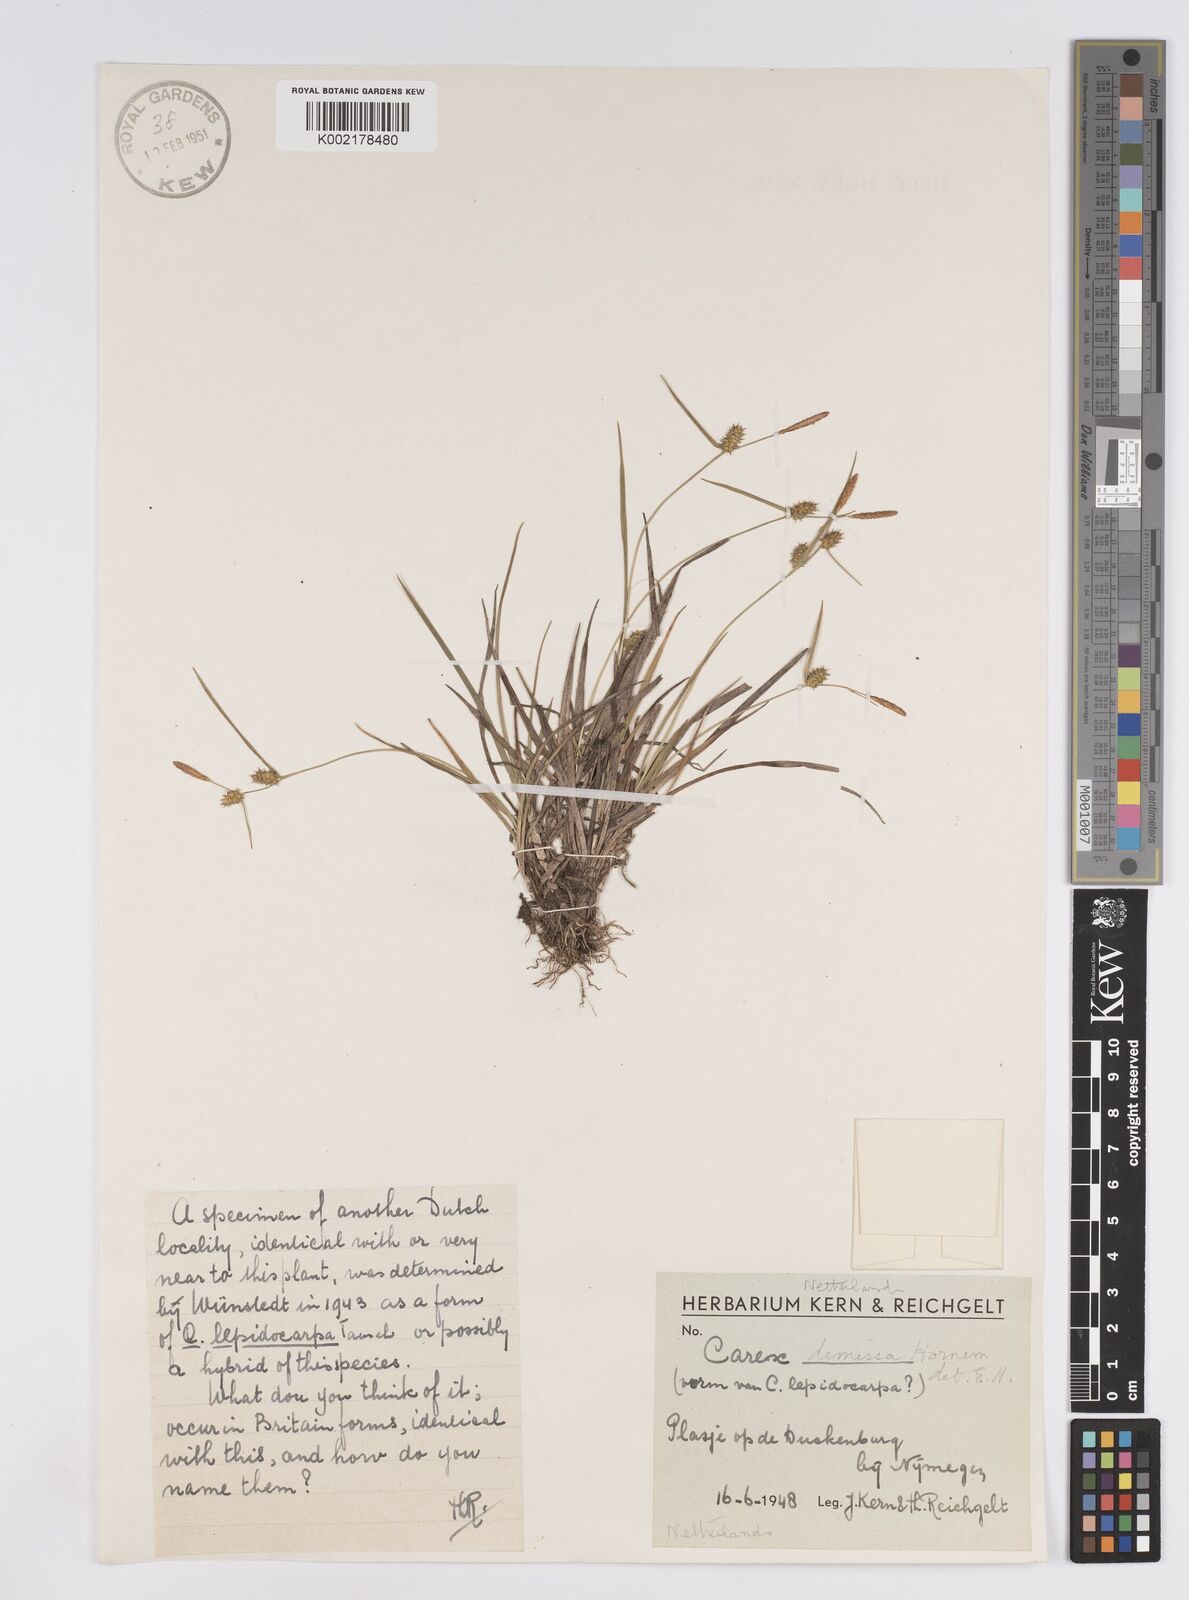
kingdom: Plantae
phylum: Tracheophyta
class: Liliopsida
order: Poales
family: Cyperaceae
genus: Carex
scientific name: Carex demissa
